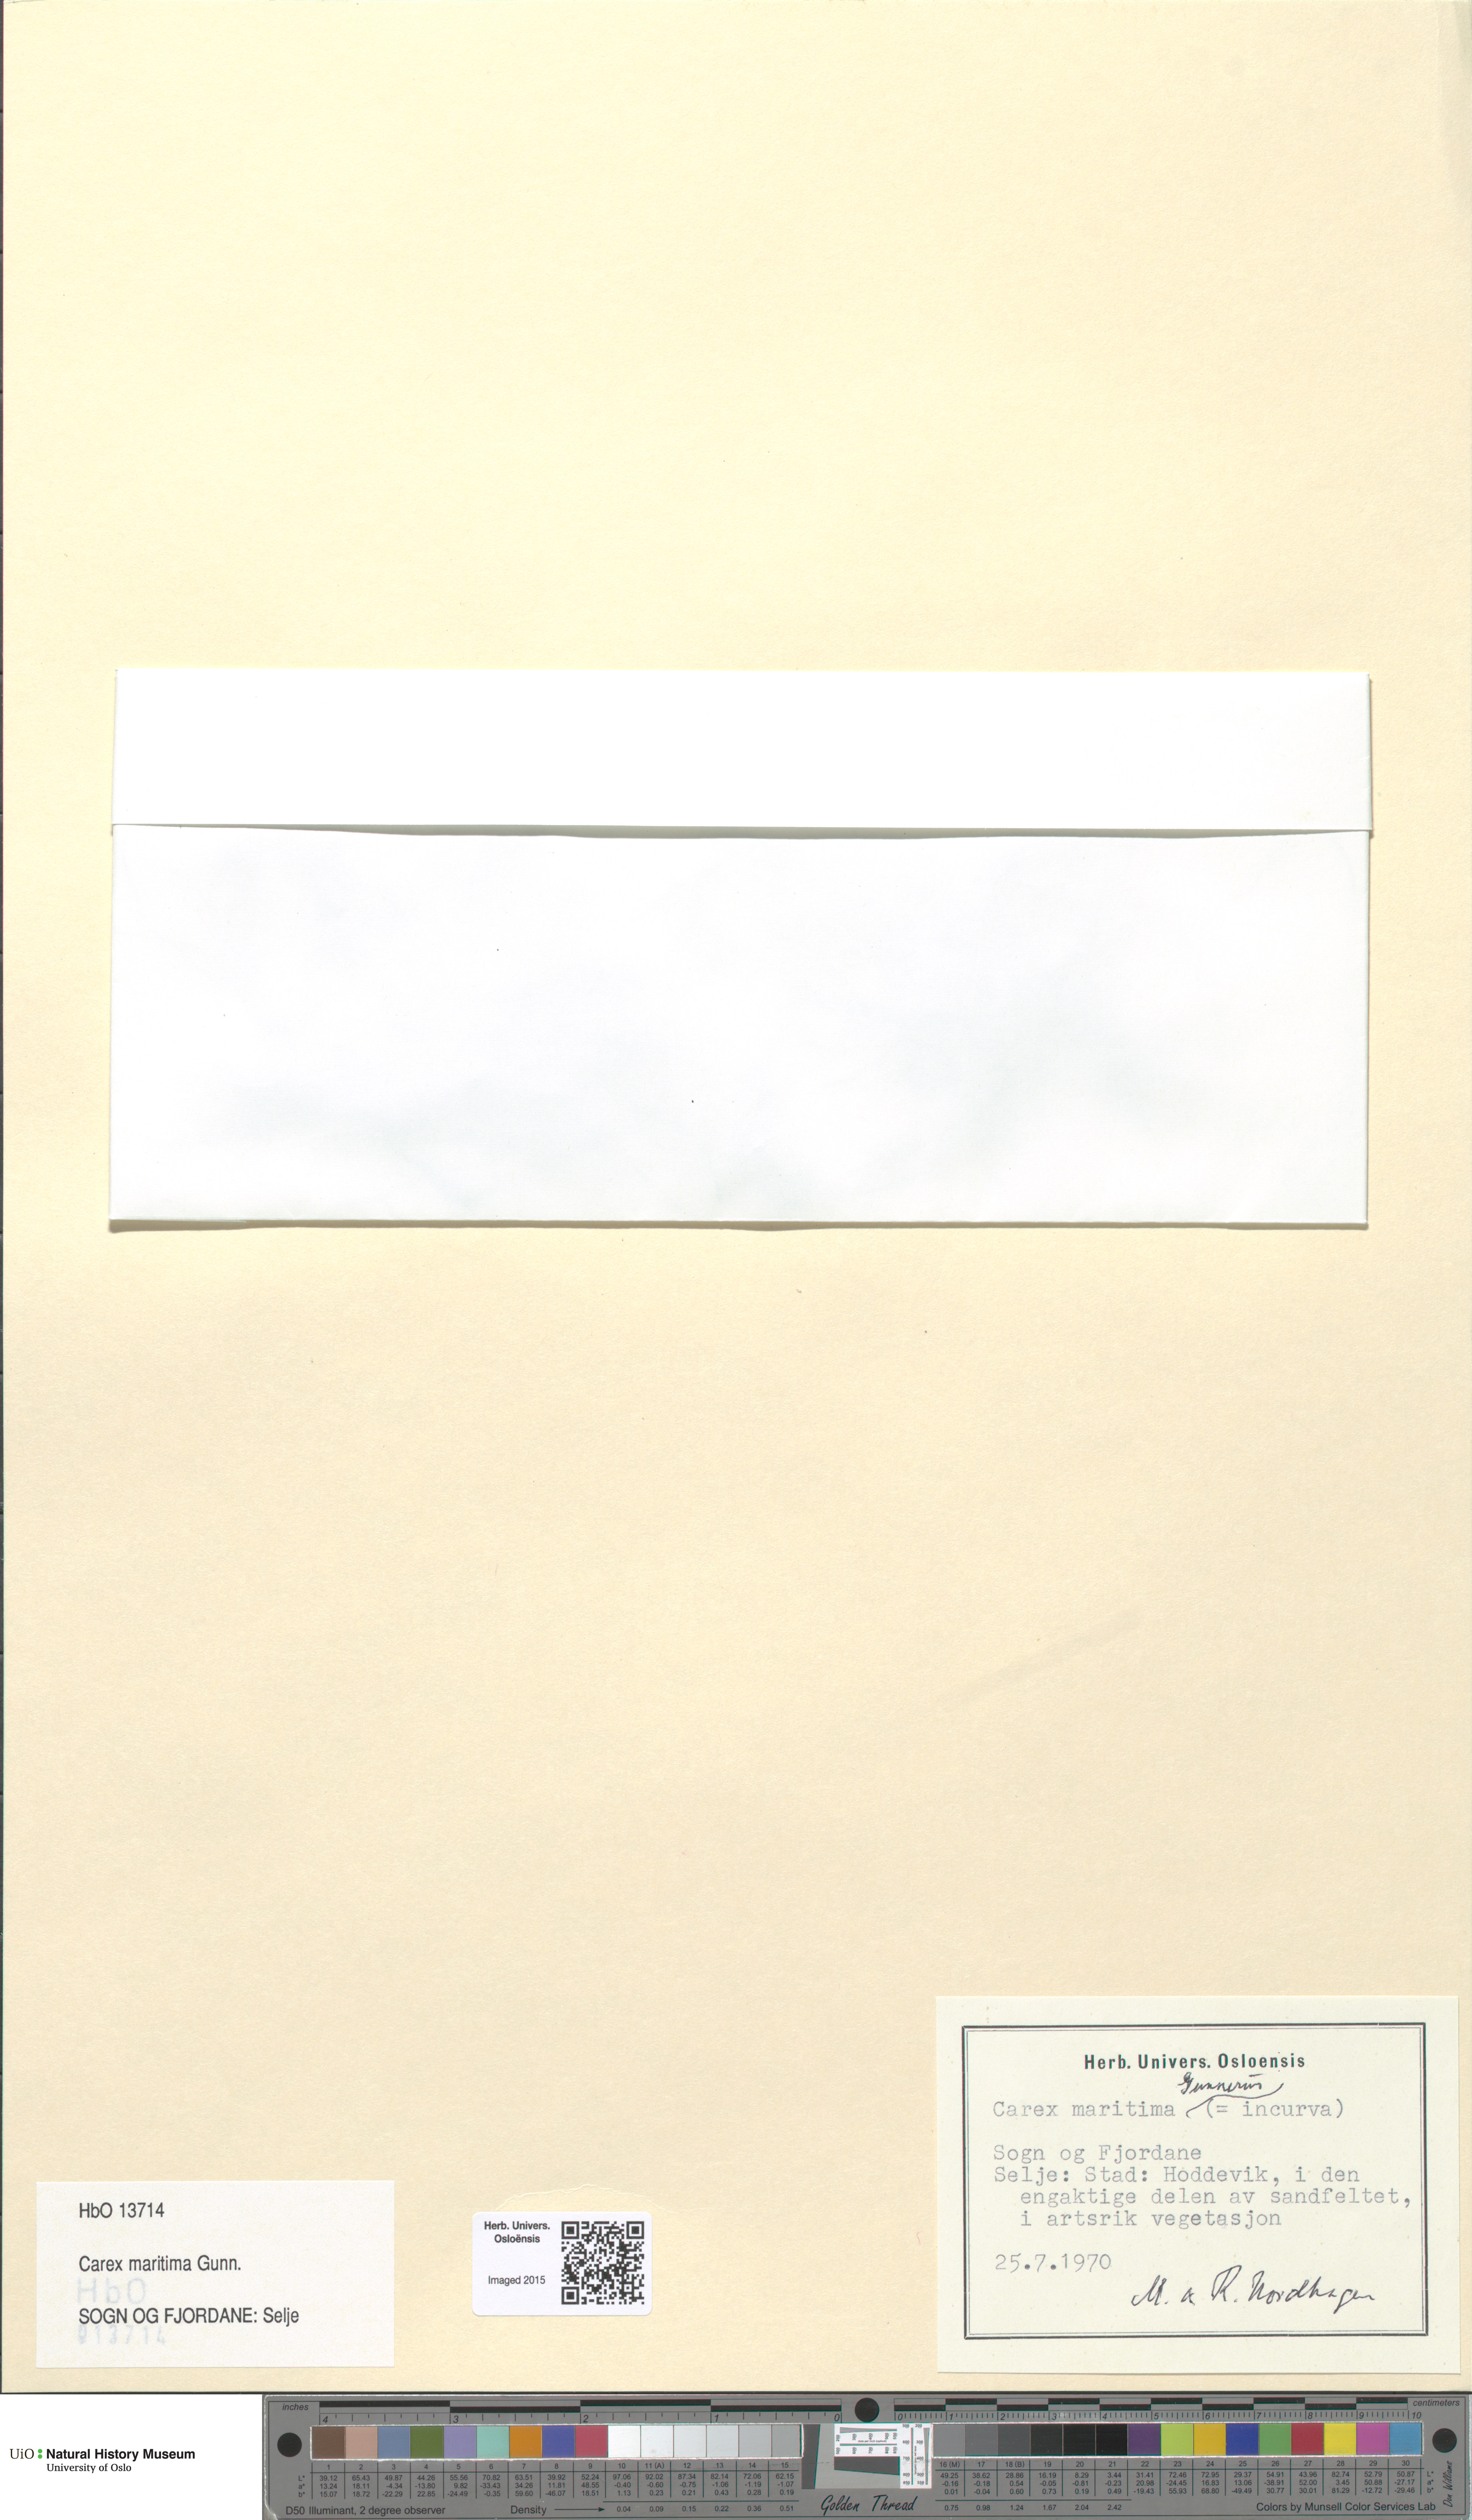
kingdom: Plantae
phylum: Tracheophyta
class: Liliopsida
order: Poales
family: Cyperaceae
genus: Carex
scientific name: Carex maritima
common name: Curved sedge
